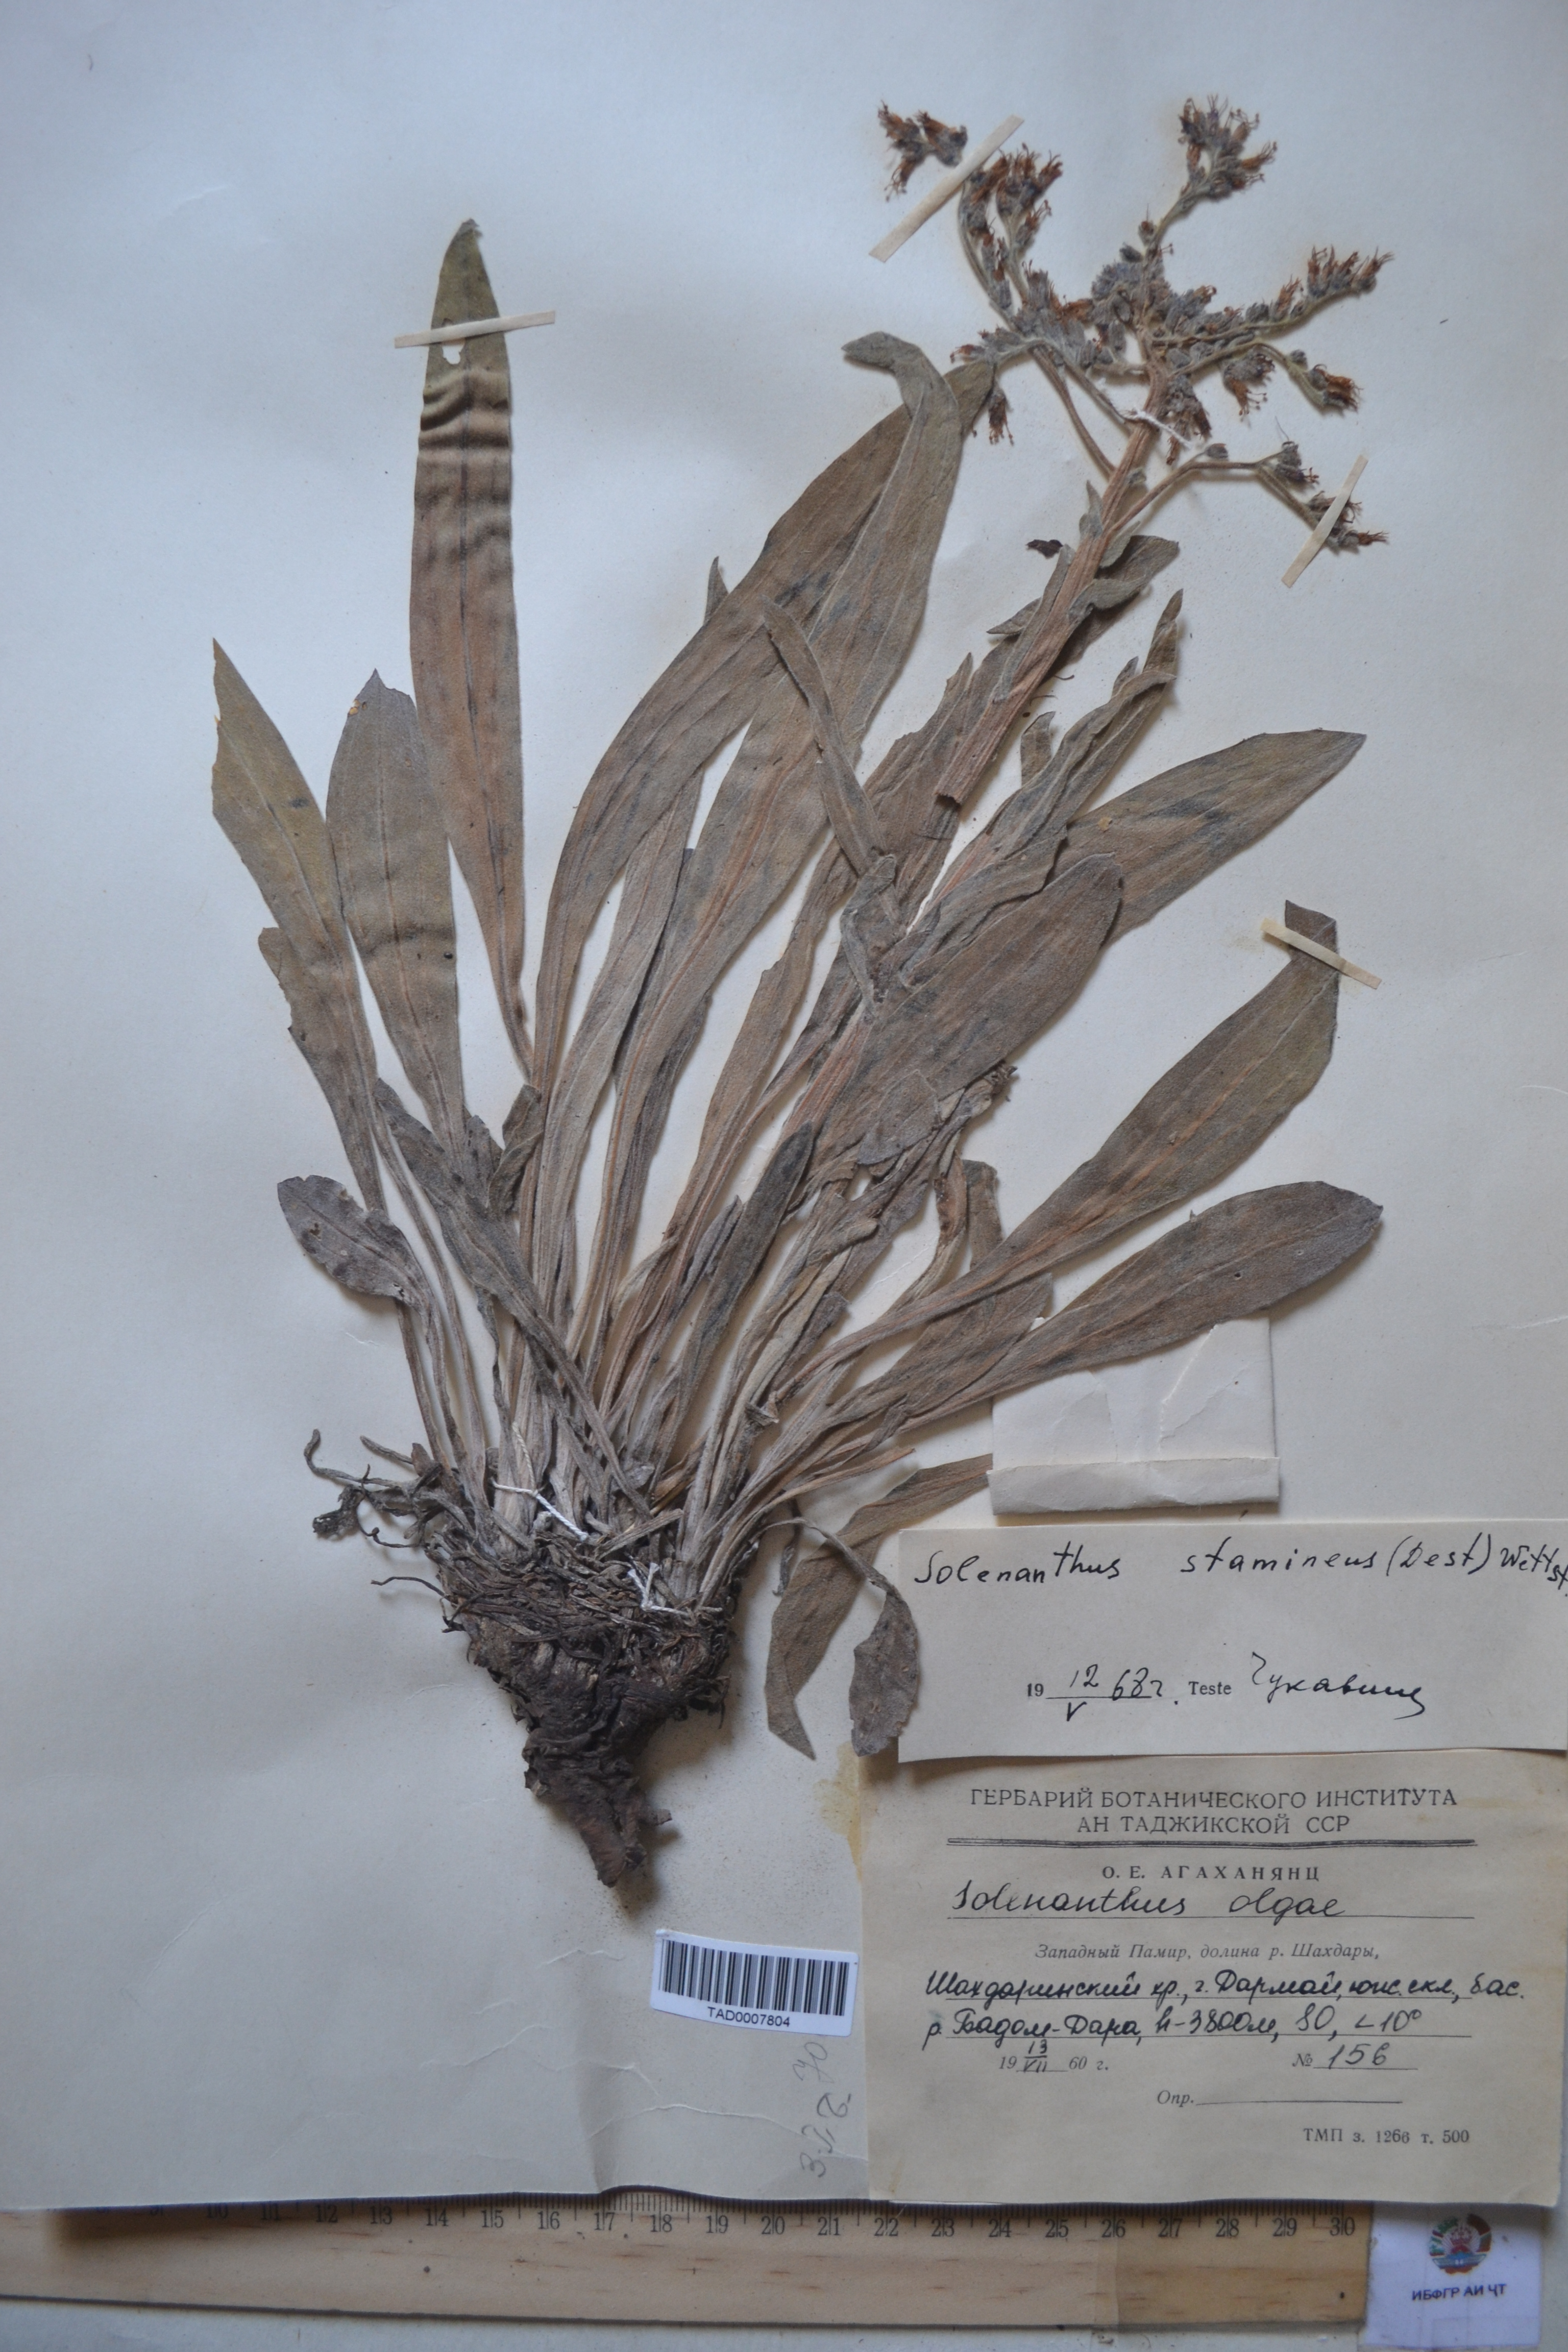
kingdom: Plantae
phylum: Tracheophyta
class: Magnoliopsida
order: Boraginales
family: Boraginaceae
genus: Solenanthus
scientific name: Solenanthus stamineus
